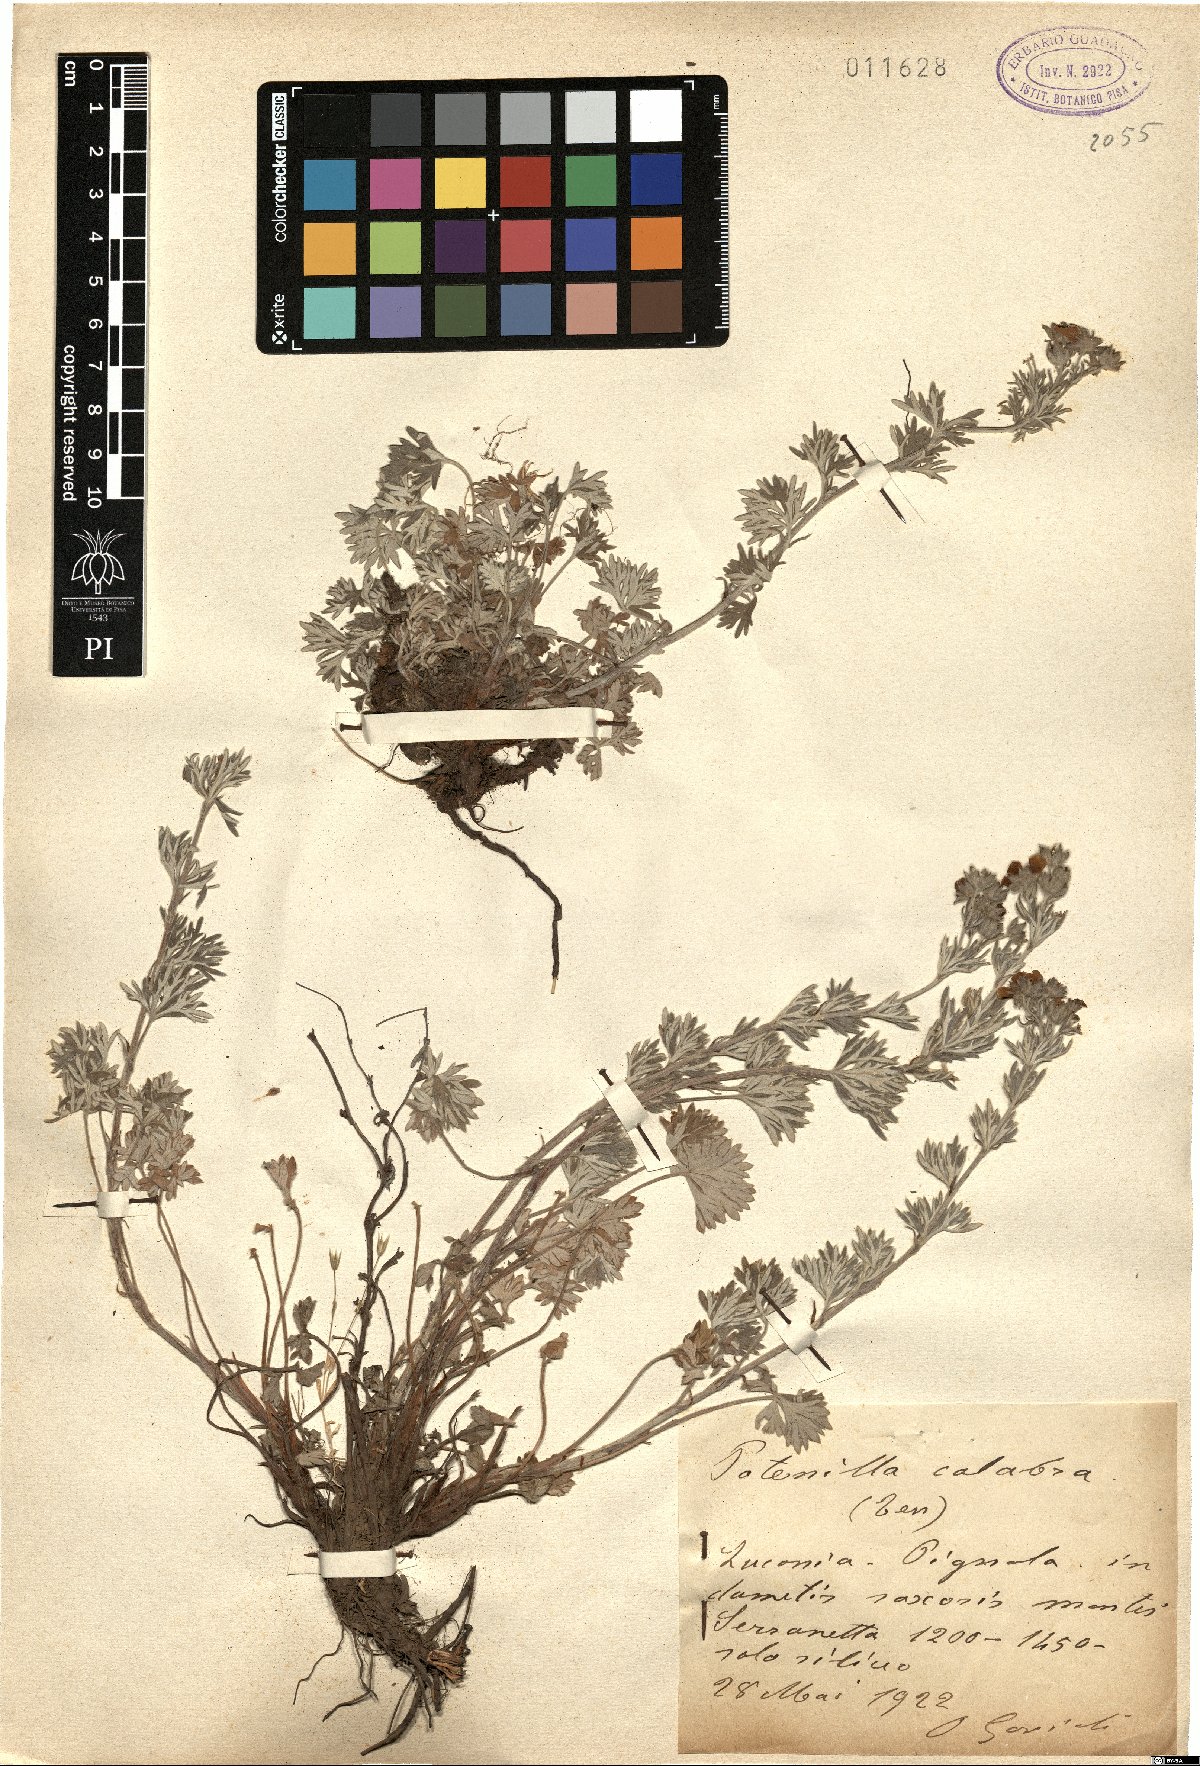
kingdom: Plantae
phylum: Tracheophyta
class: Magnoliopsida
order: Rosales
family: Rosaceae
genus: Potentilla
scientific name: Potentilla calabra
